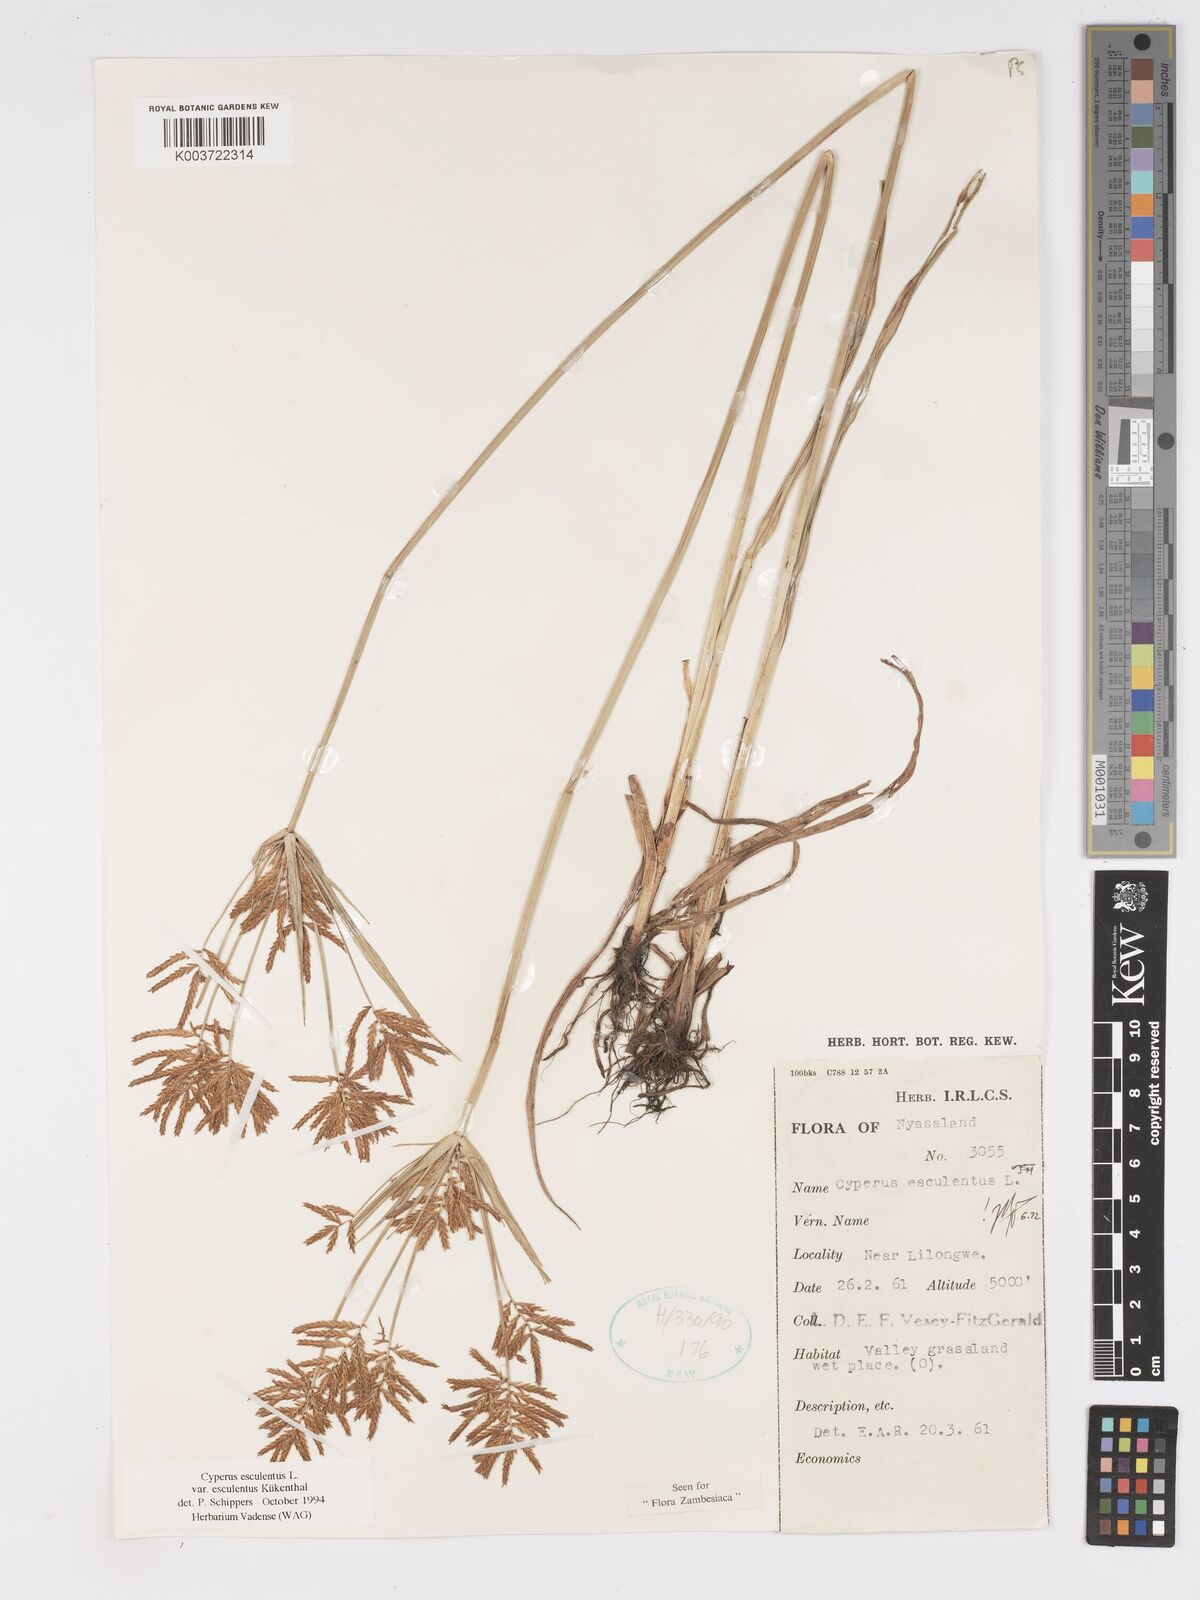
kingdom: Plantae
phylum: Tracheophyta
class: Liliopsida
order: Poales
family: Cyperaceae
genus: Cyperus
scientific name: Cyperus esculentus
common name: Yellow nutsedge
